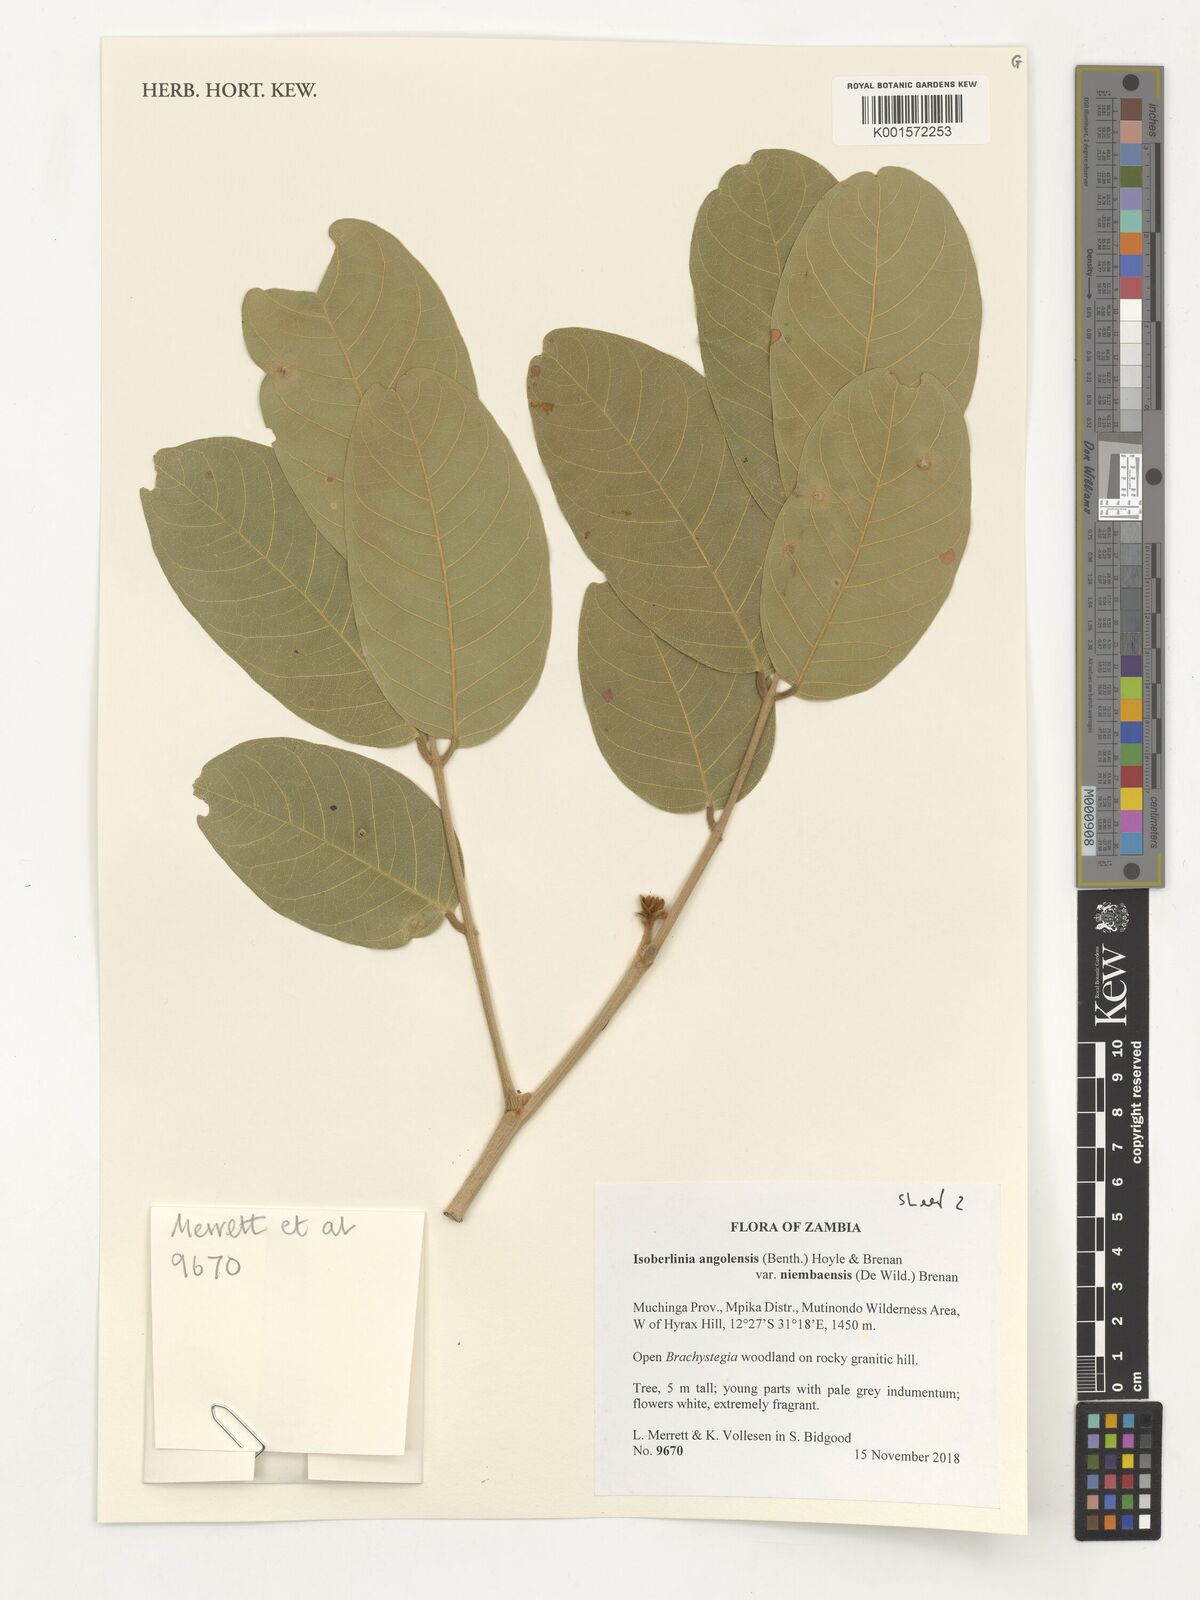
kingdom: Plantae
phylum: Tracheophyta
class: Magnoliopsida
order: Fabales
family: Fabaceae
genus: Isoberlinia
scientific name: Isoberlinia angolensis
